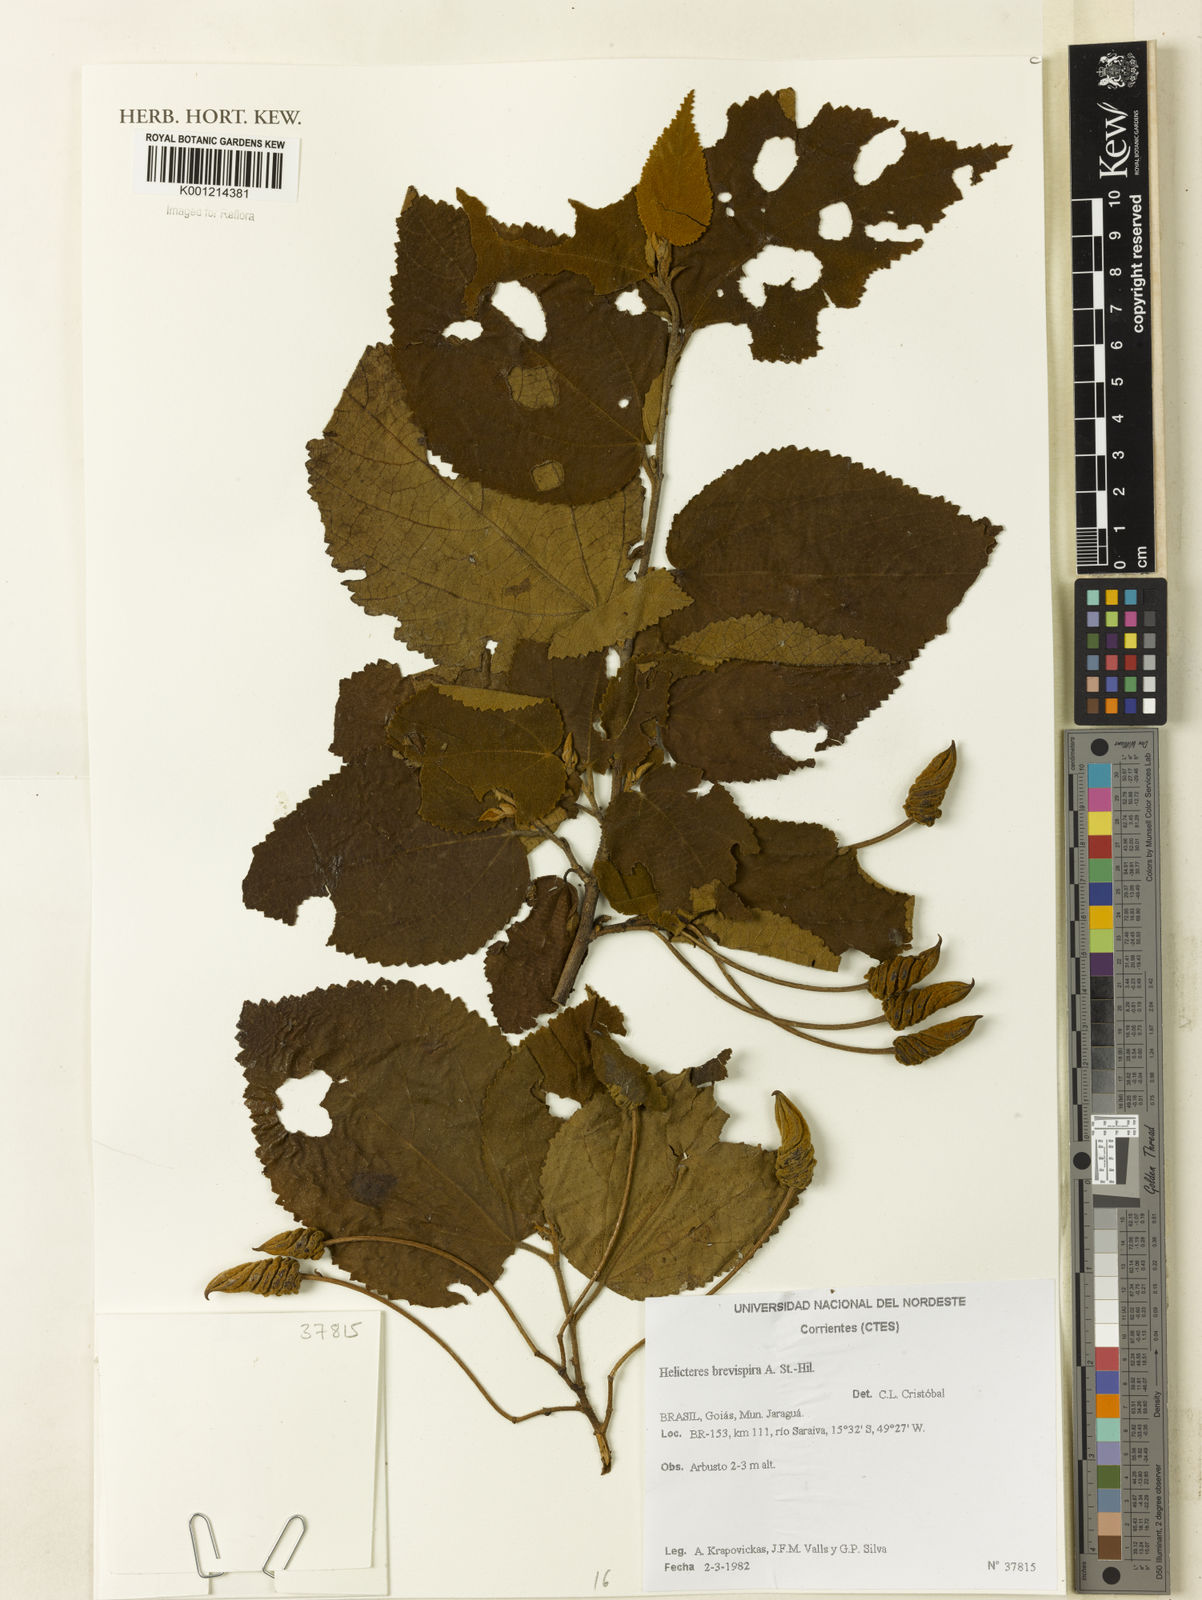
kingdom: Plantae
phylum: Tracheophyta
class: Magnoliopsida
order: Malvales
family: Malvaceae
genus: Helicteres
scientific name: Helicteres
